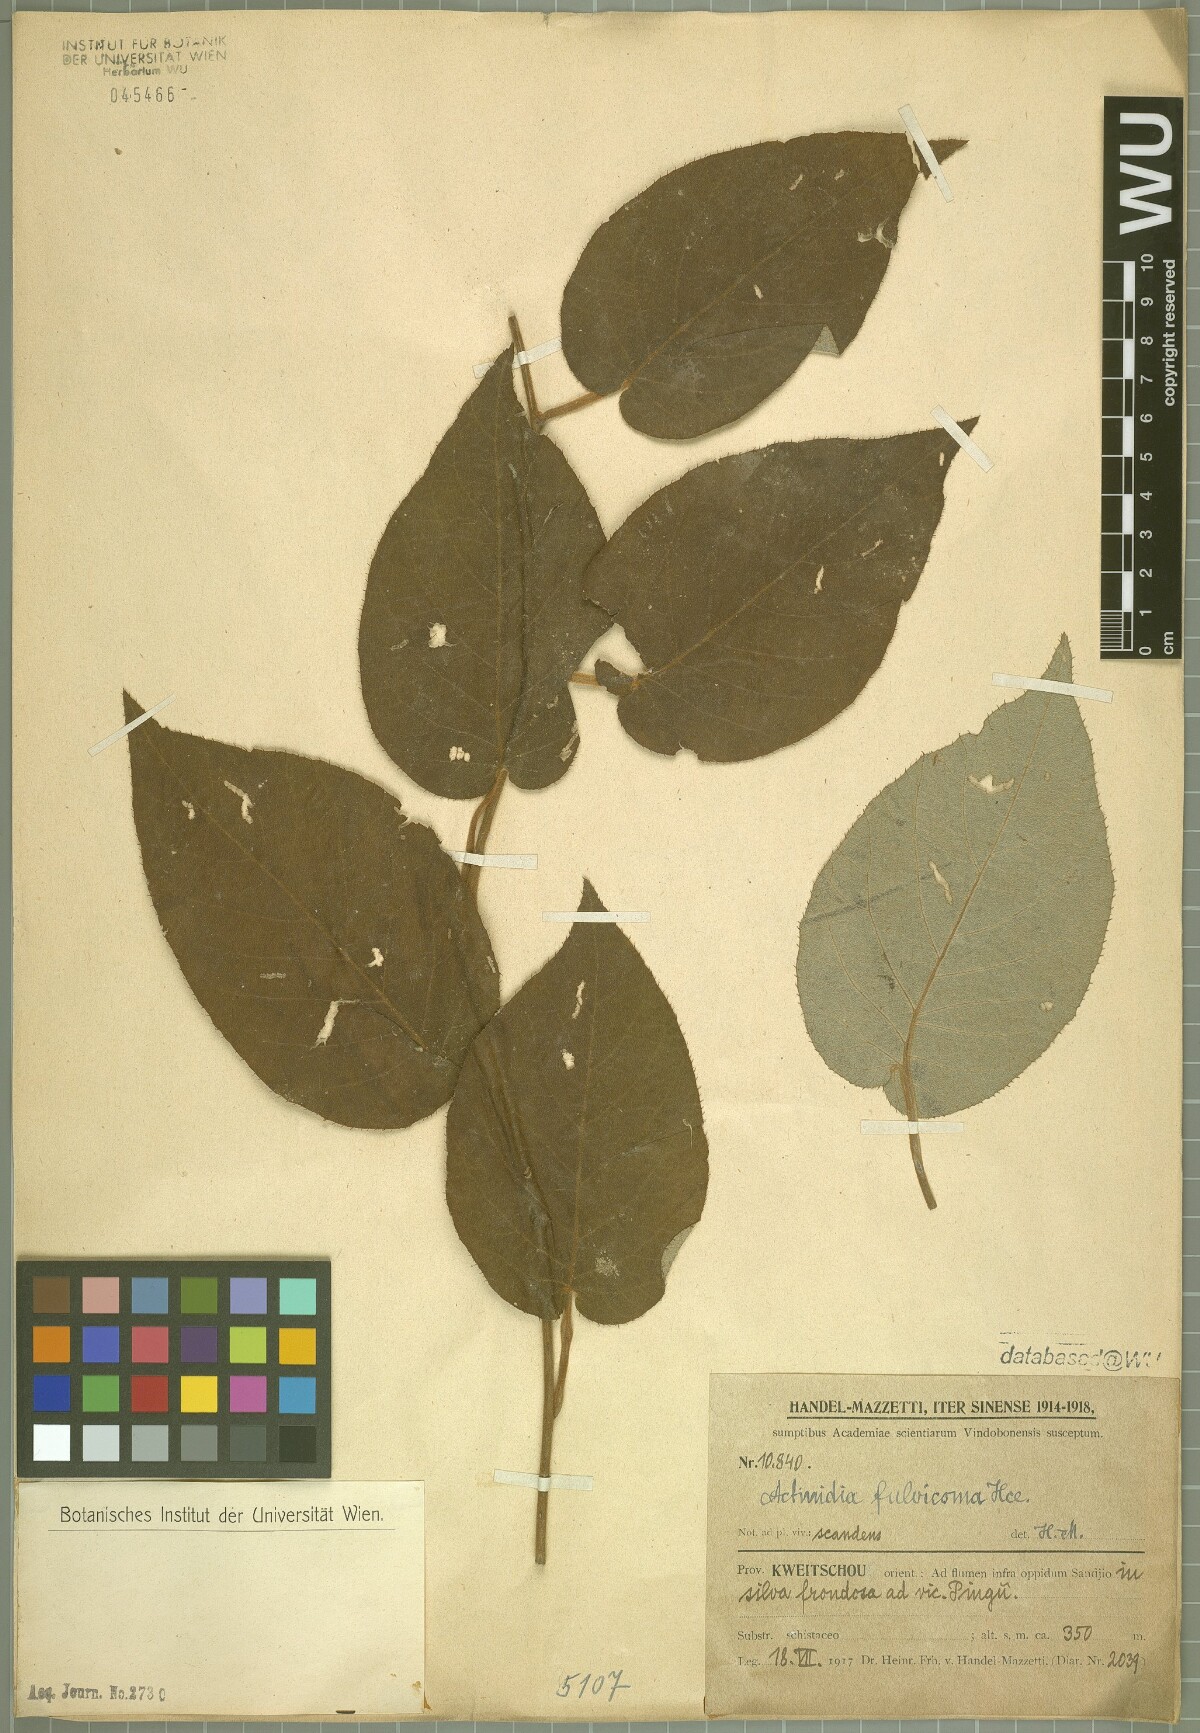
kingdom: Plantae
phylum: Tracheophyta
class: Magnoliopsida
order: Ericales
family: Actinidiaceae
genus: Actinidia
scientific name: Actinidia fulvicoma
